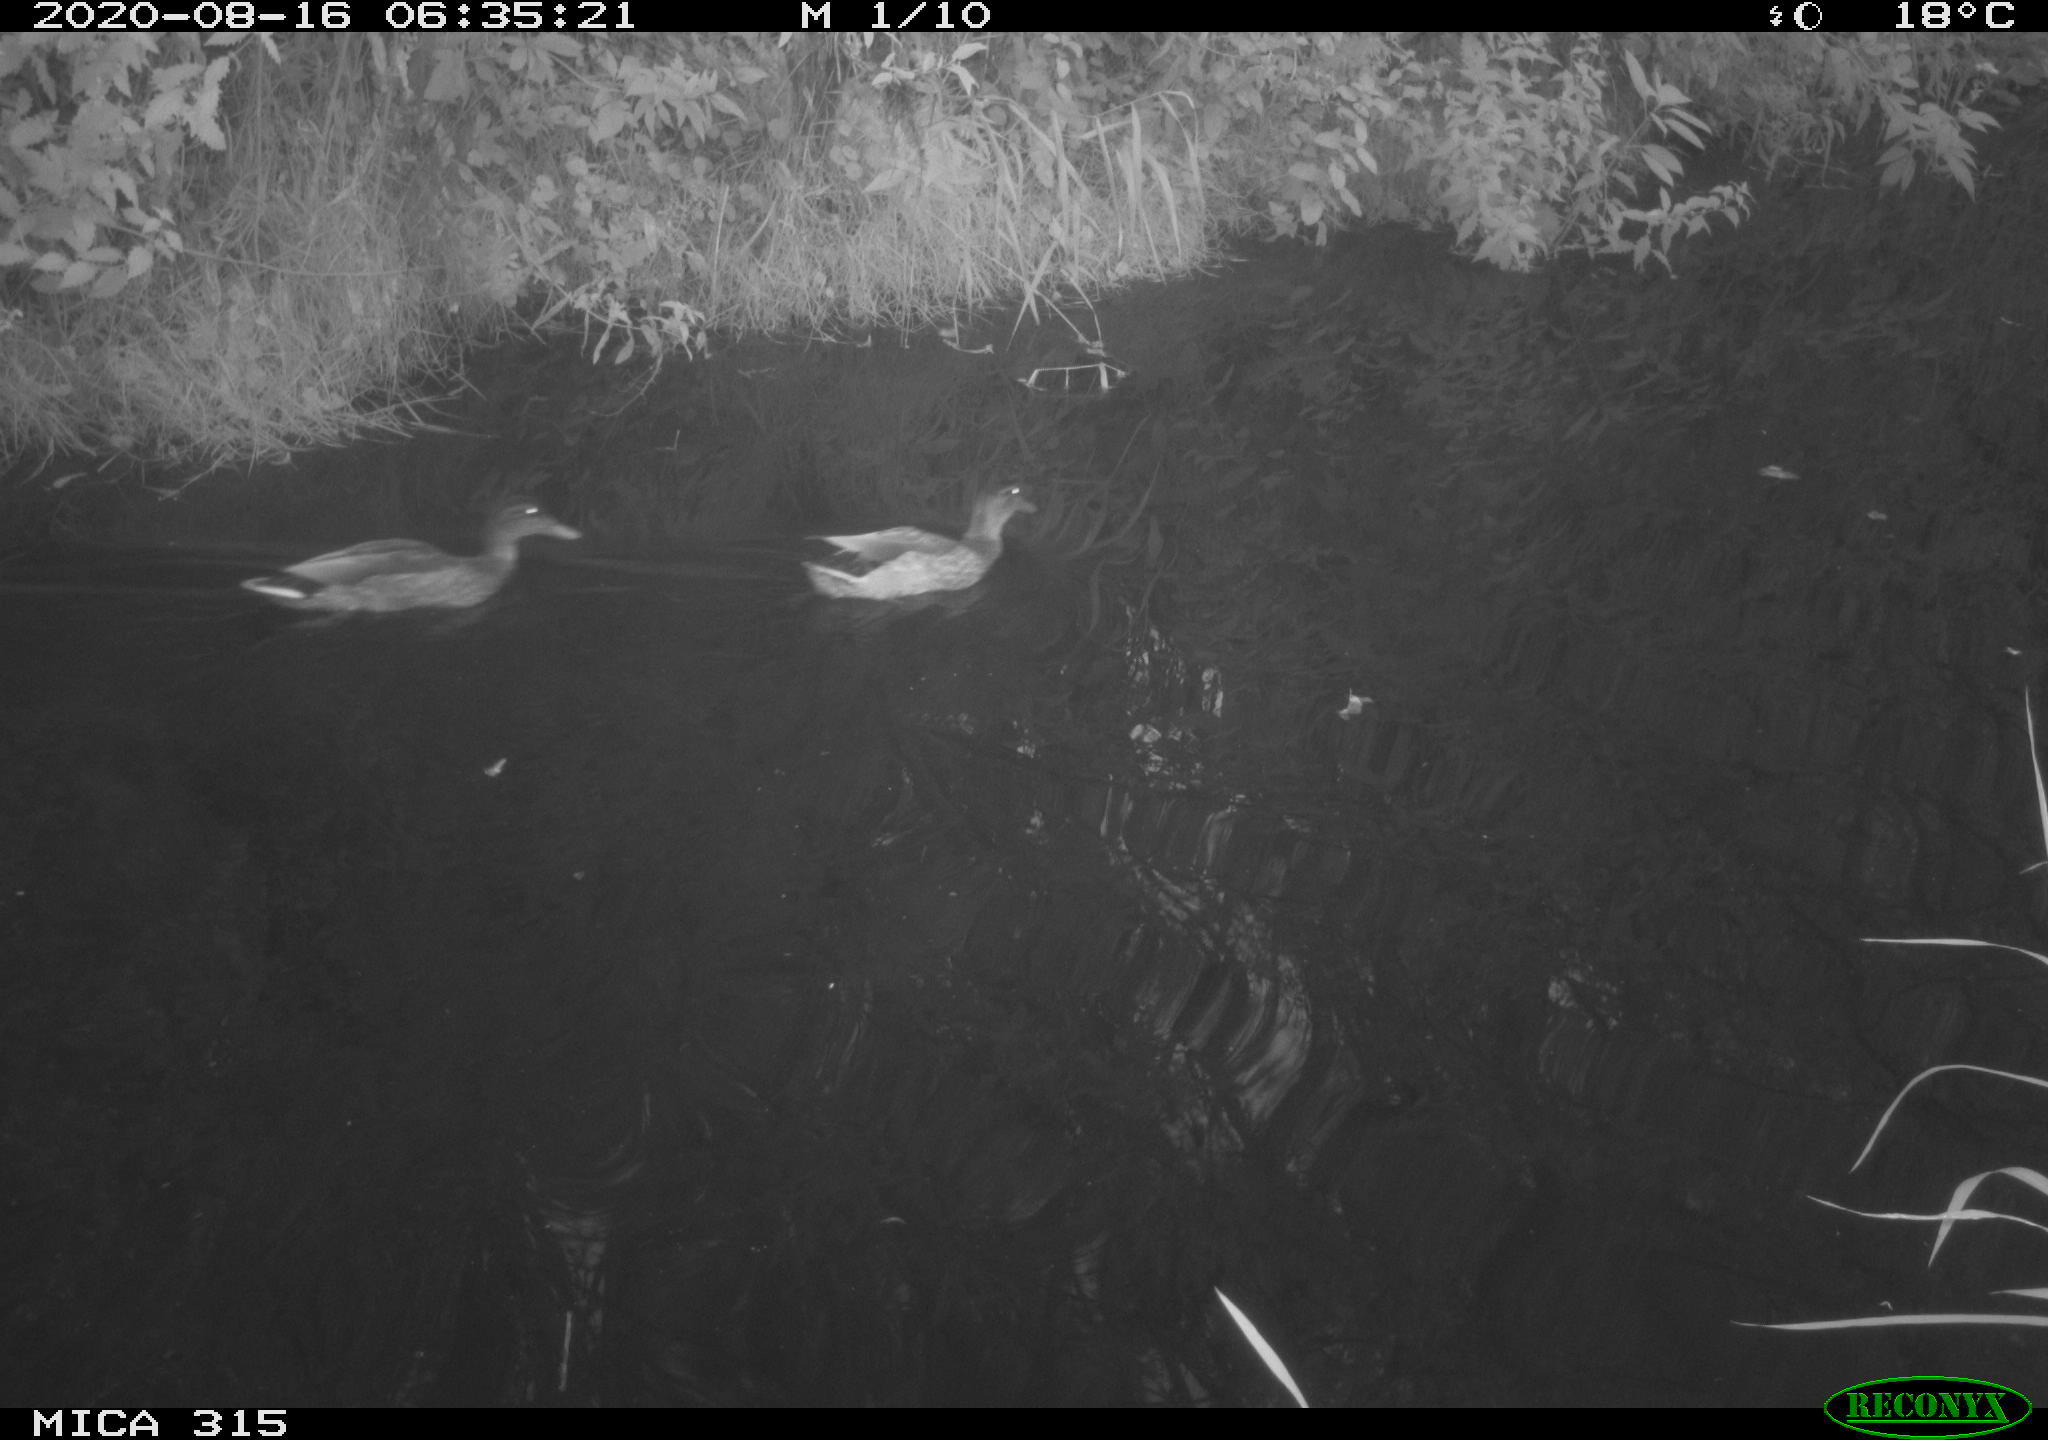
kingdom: Animalia
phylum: Chordata
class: Aves
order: Anseriformes
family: Anatidae
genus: Anas
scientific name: Anas platyrhynchos
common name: Mallard
